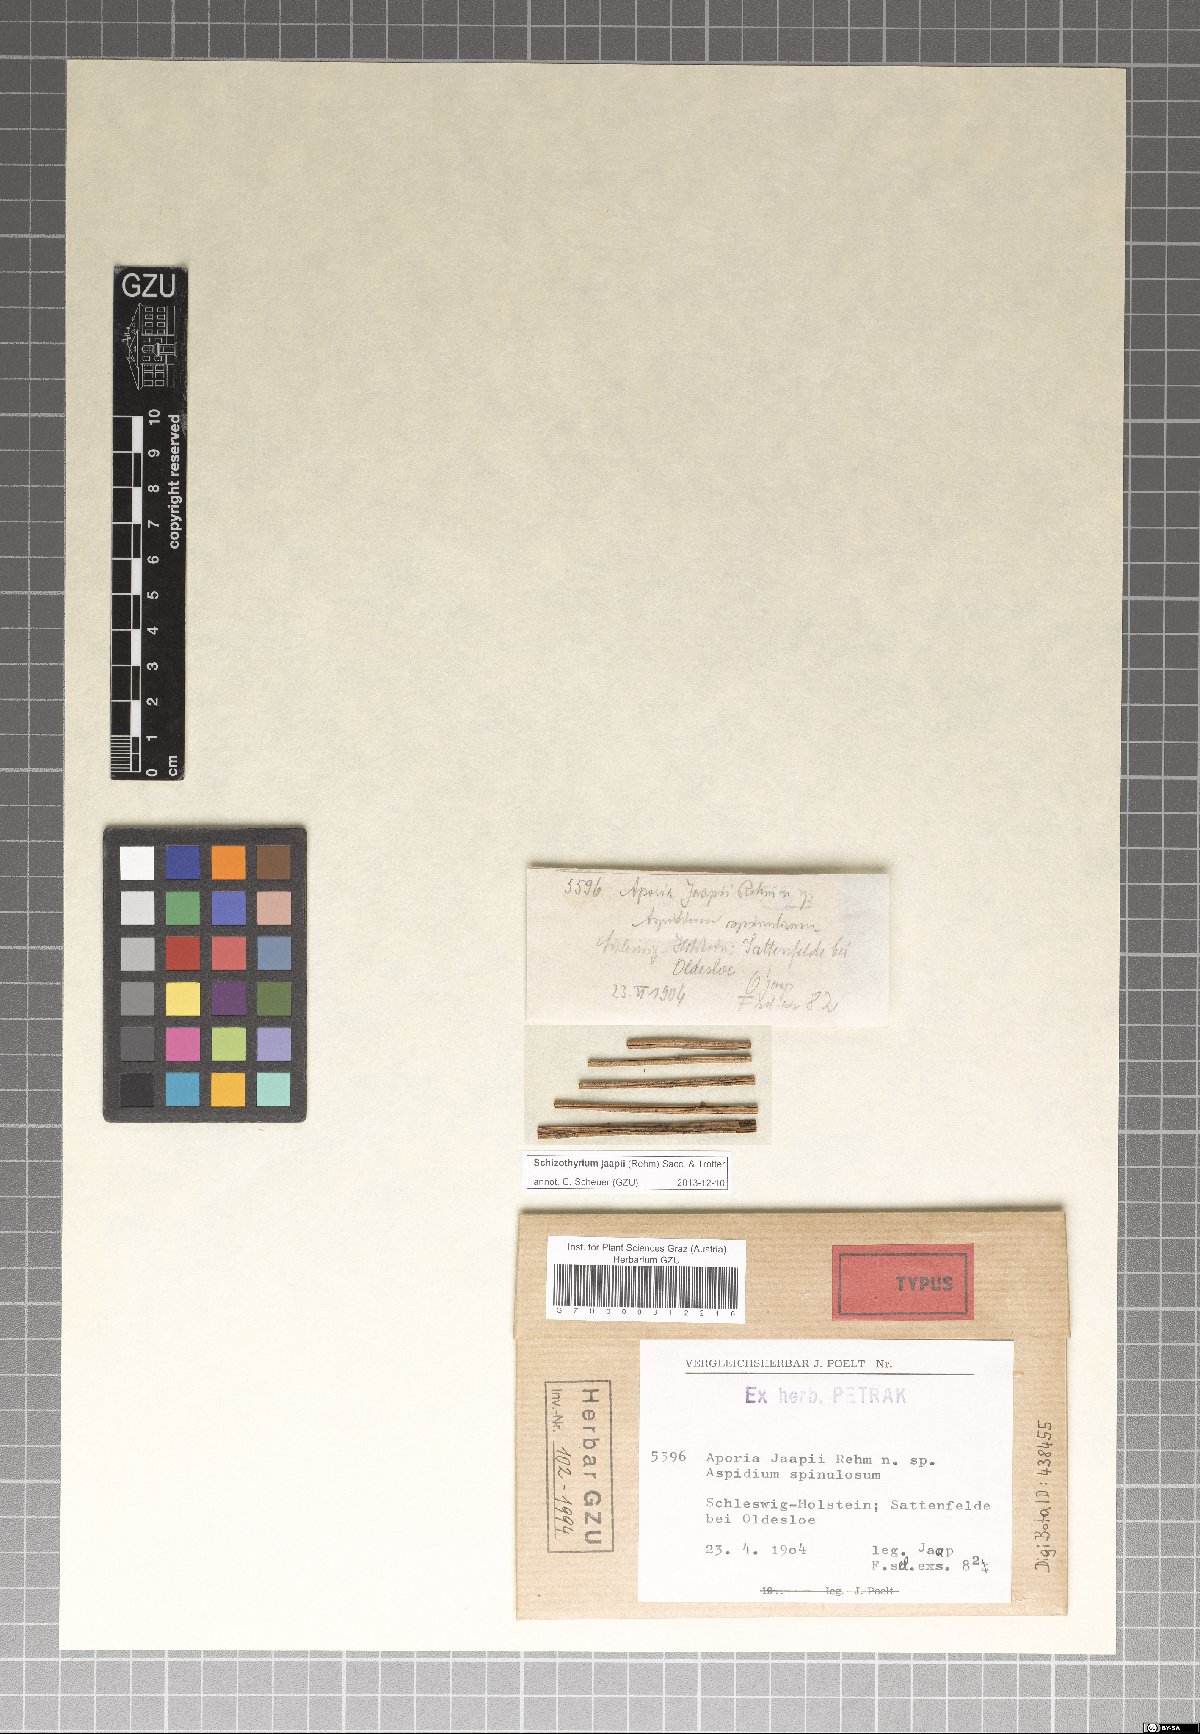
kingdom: Fungi
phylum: Ascomycota
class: Dothideomycetes
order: Mycosphaerellales
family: Schizothyriaceae
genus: Schizothyrium
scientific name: Schizothyrium jaapii
